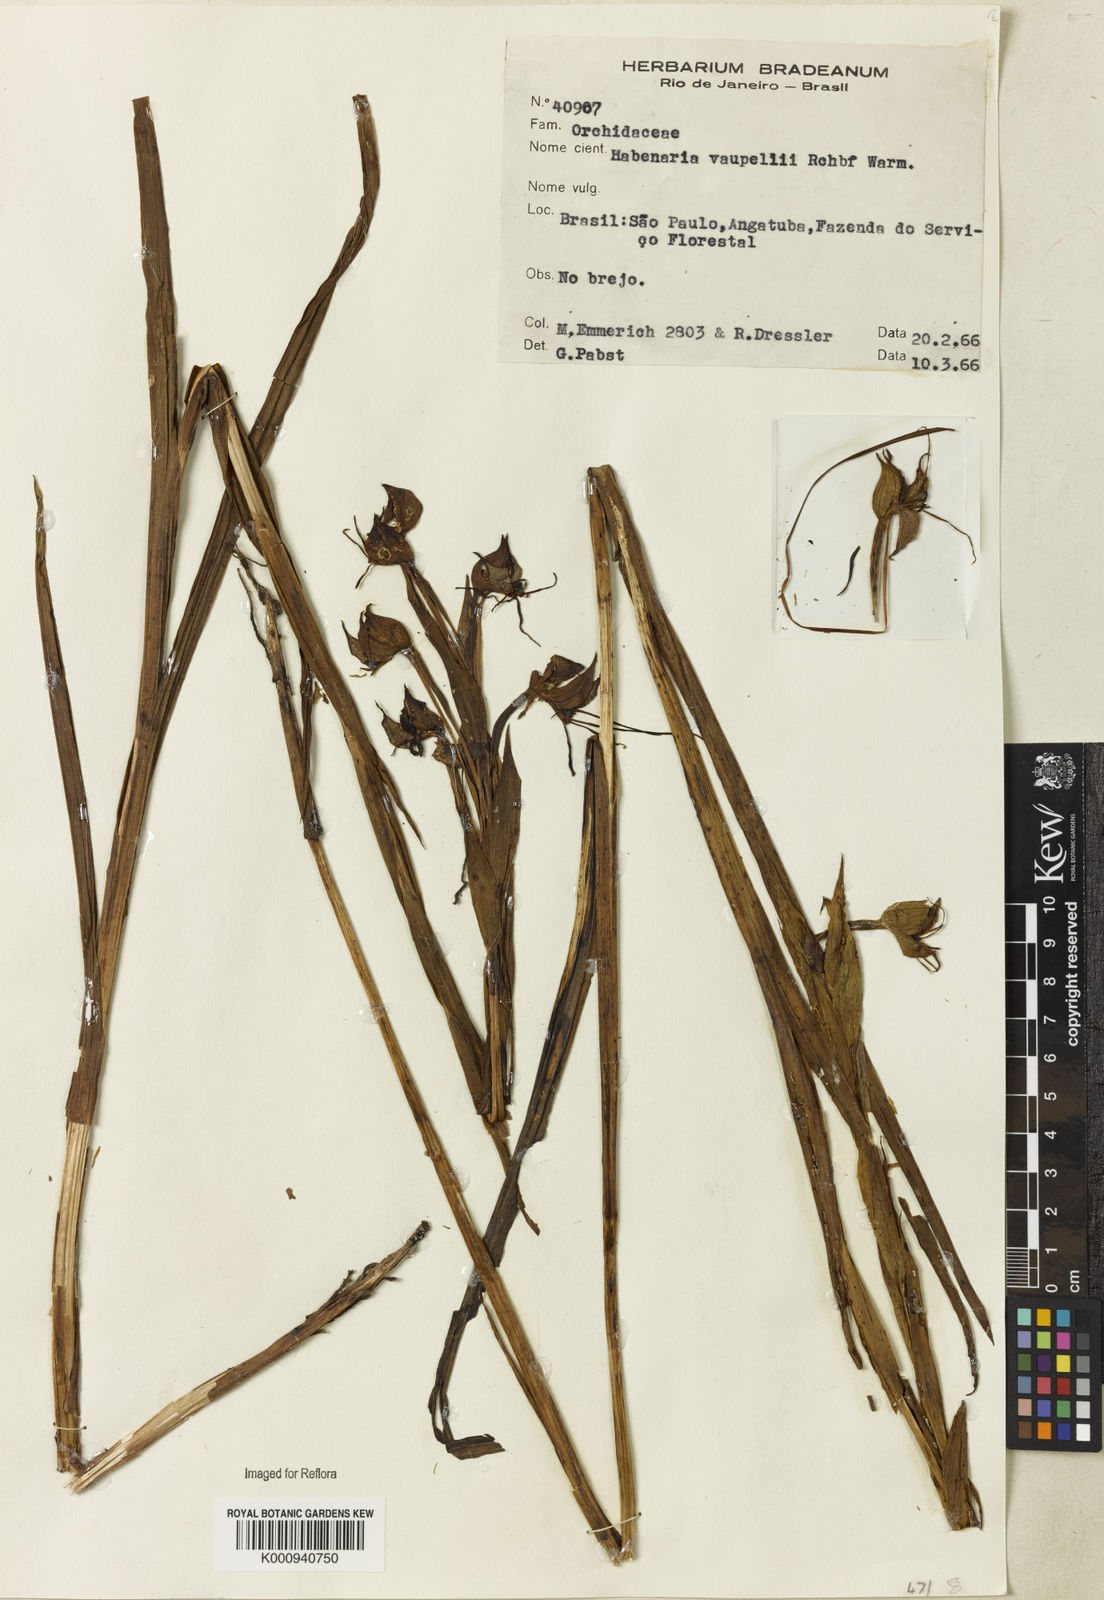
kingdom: Plantae
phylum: Tracheophyta
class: Liliopsida
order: Asparagales
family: Orchidaceae
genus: Habenaria
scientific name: Habenaria johannensis
